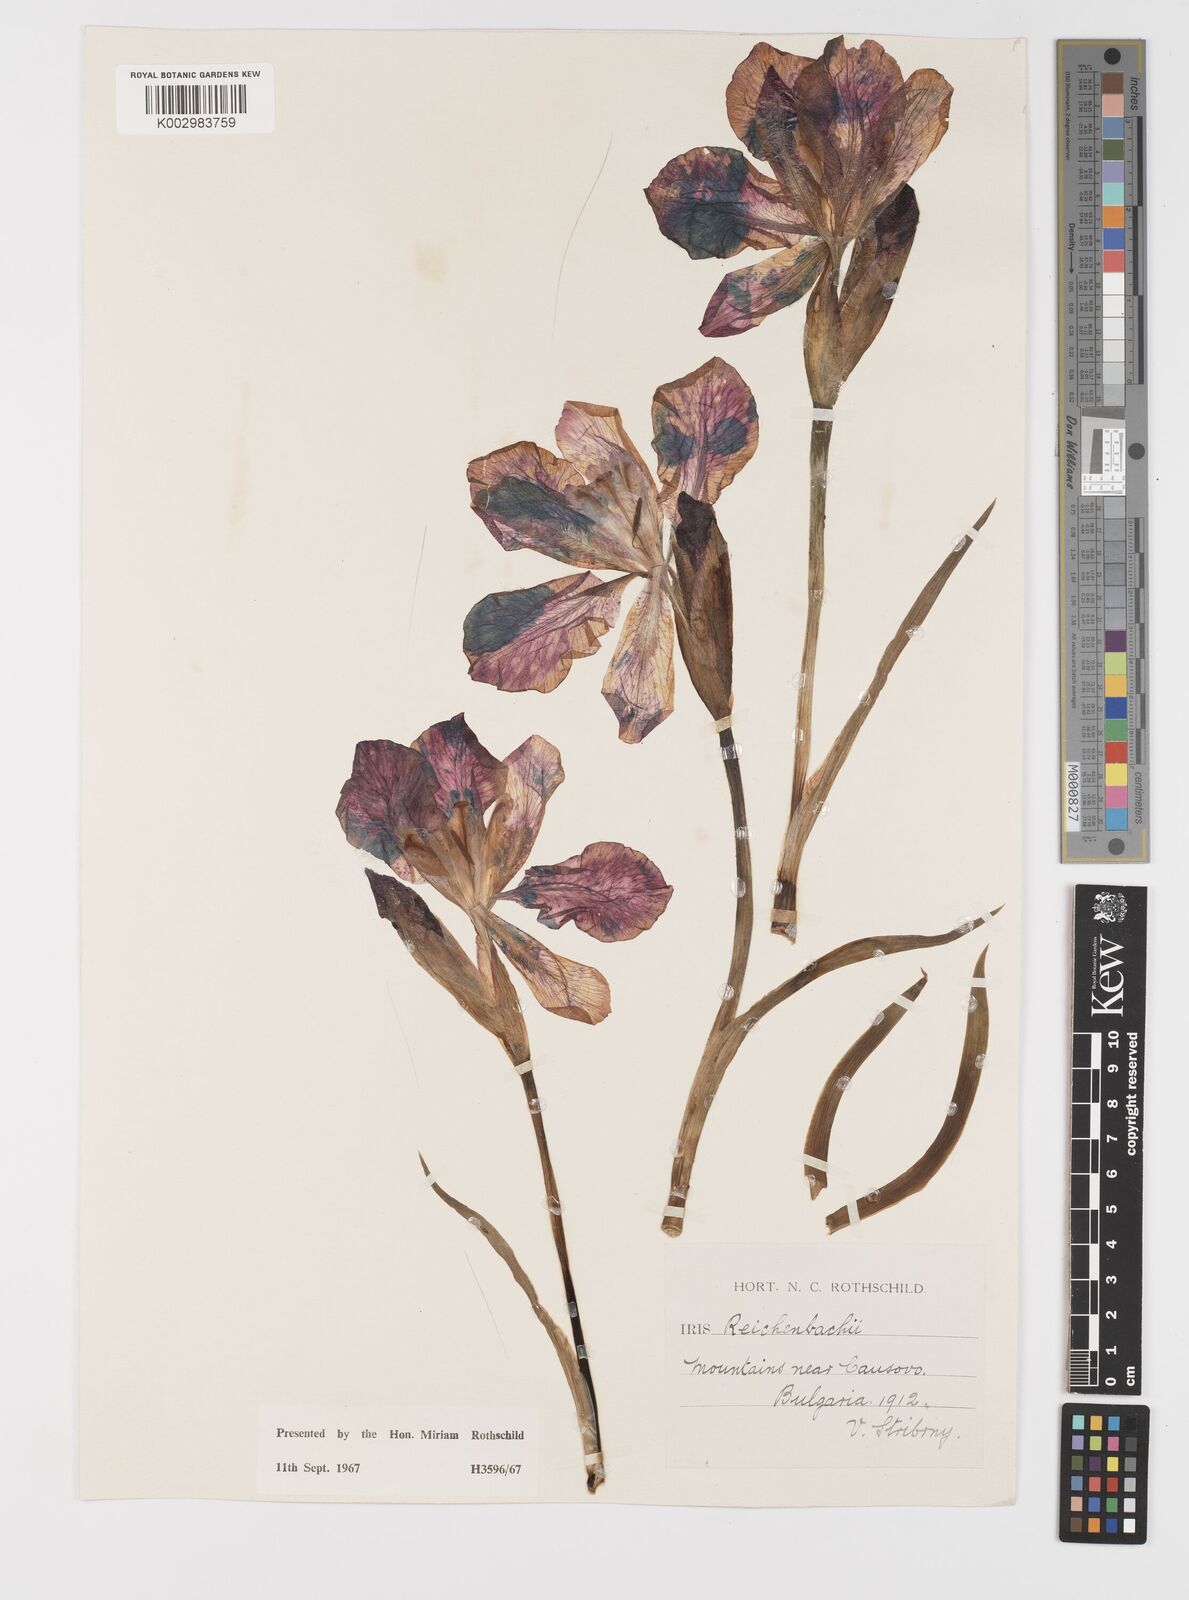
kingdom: Plantae
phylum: Tracheophyta
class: Liliopsida
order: Asparagales
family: Iridaceae
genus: Iris
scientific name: Iris reichenbachii
